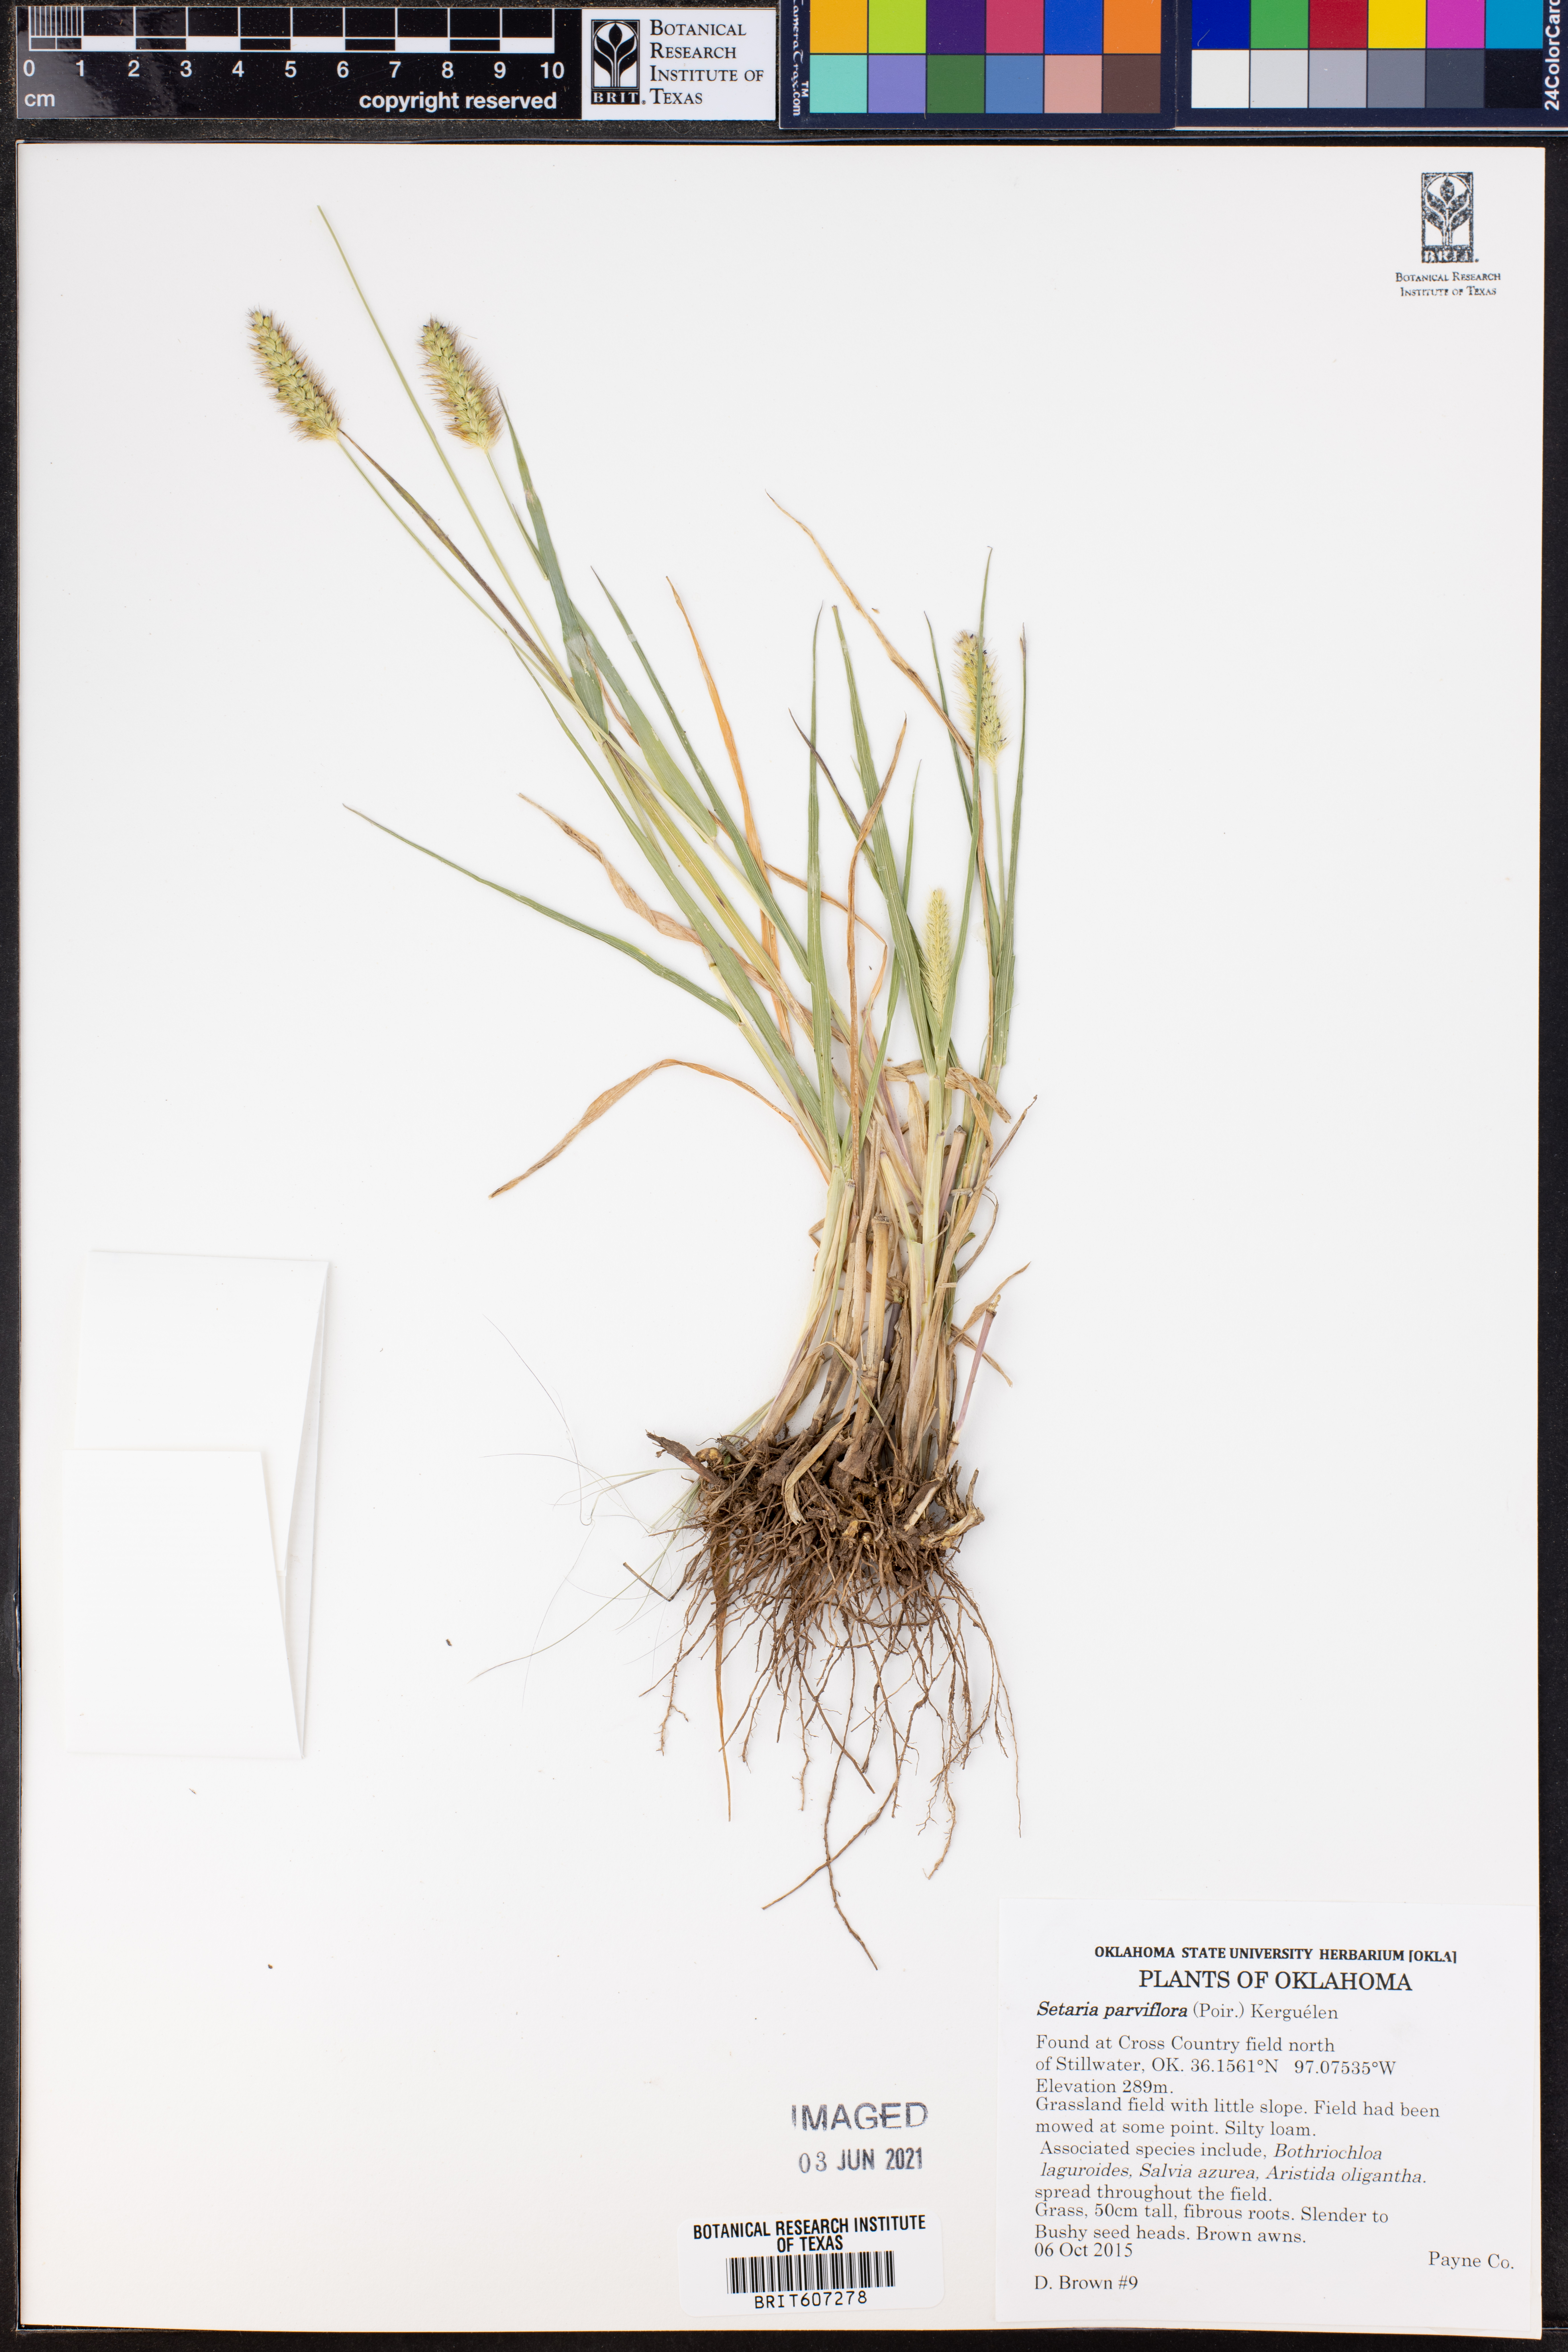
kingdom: Plantae
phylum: Tracheophyta
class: Liliopsida
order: Poales
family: Poaceae
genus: Setaria
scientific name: Setaria parviflora
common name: Knotroot bristle-grass
